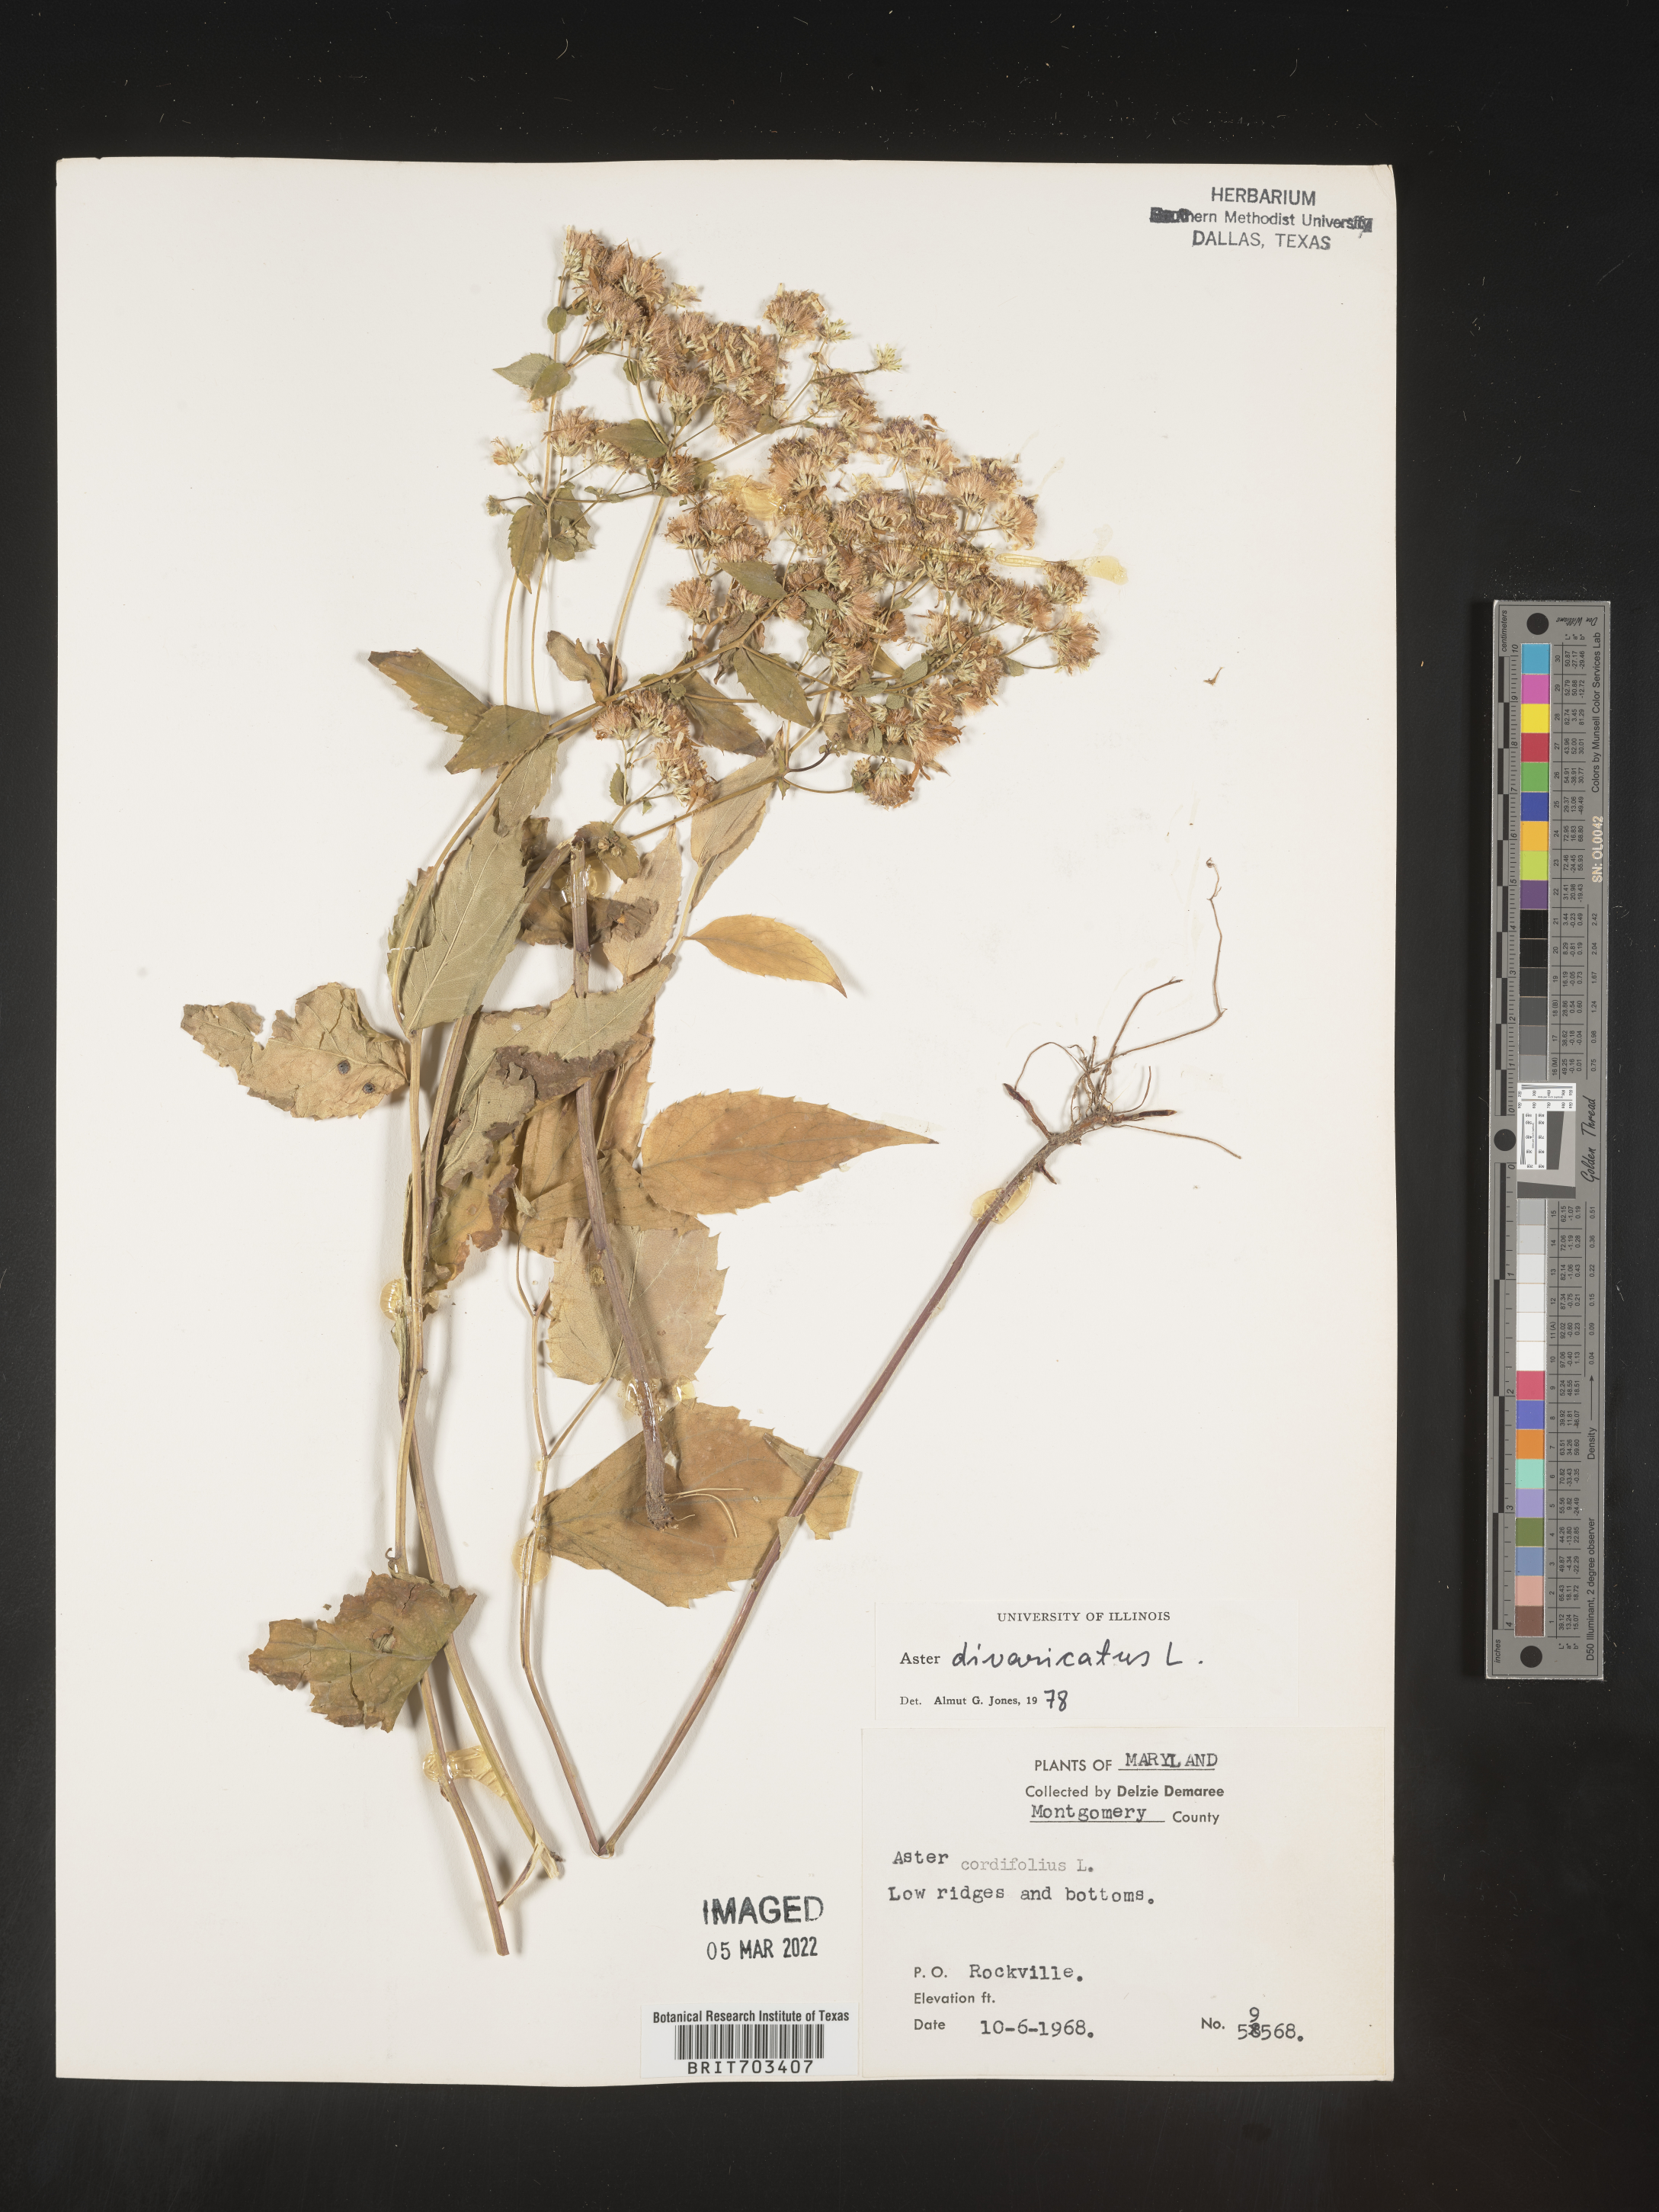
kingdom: Plantae
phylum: Tracheophyta
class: Magnoliopsida
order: Asterales
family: Asteraceae
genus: Eurybia
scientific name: Eurybia divaricata
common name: White wood aster
